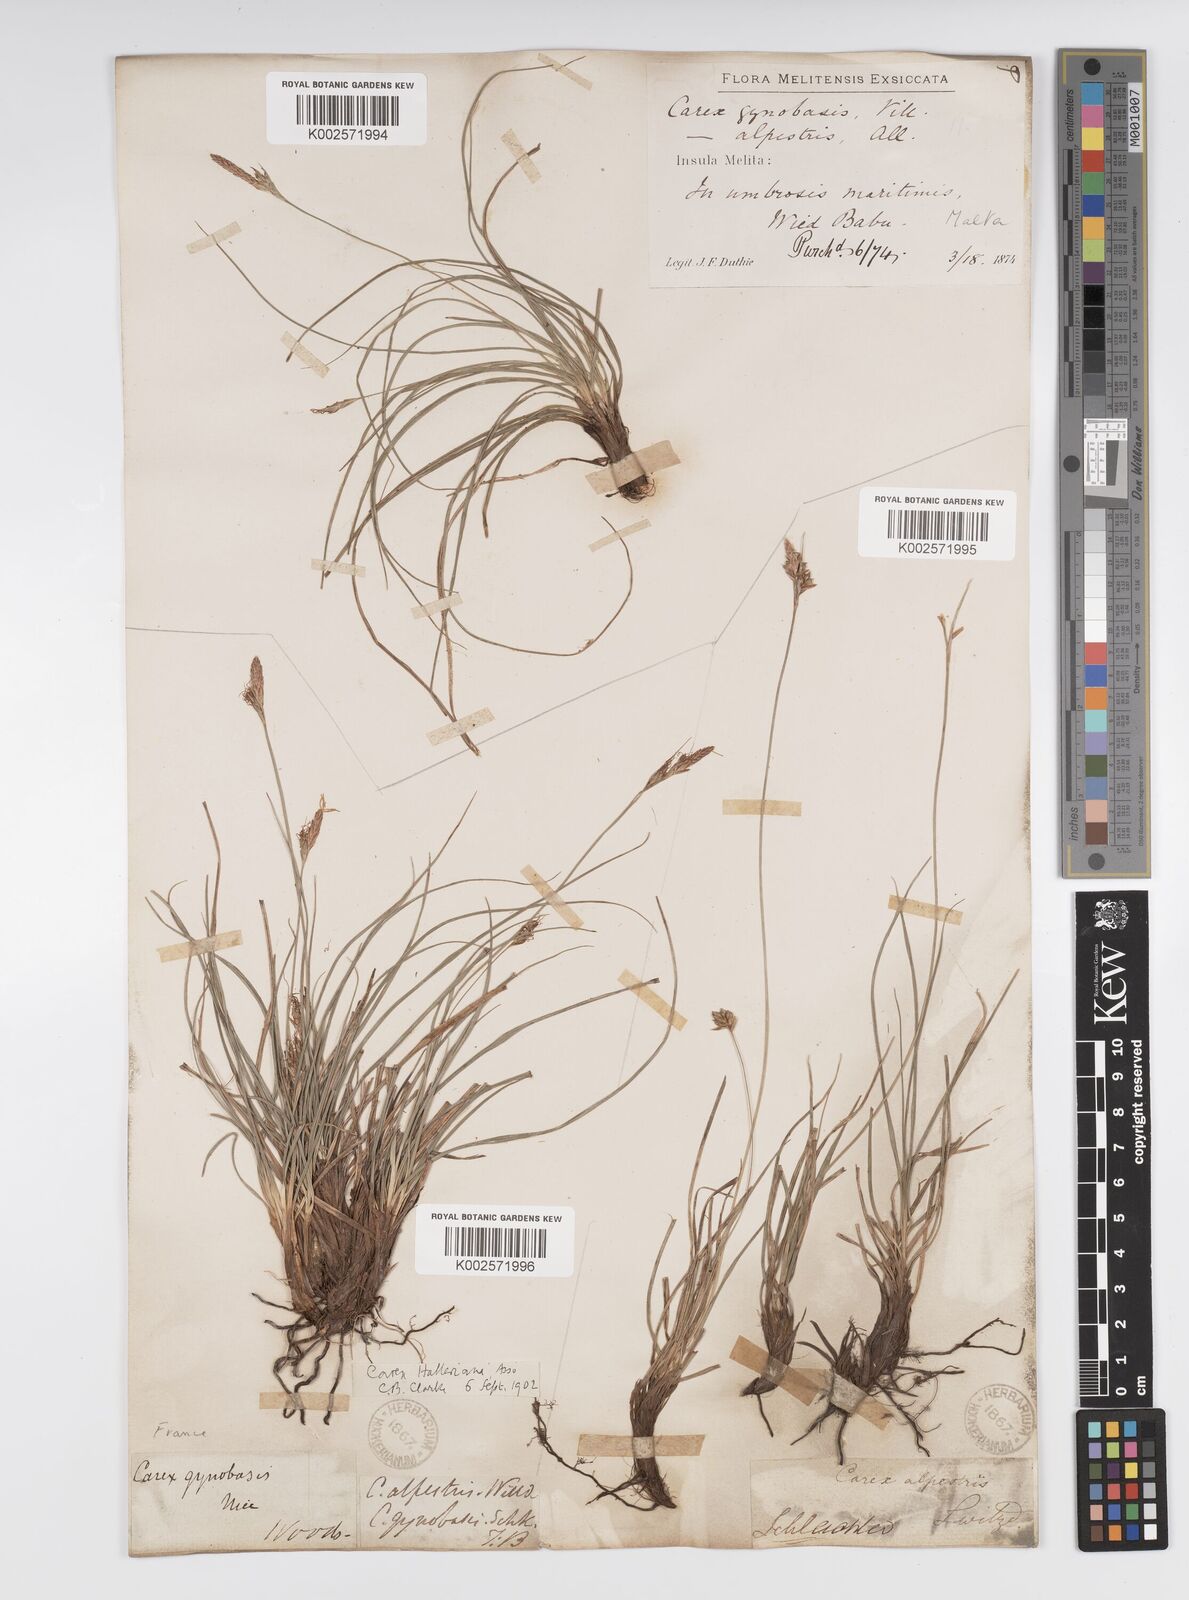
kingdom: Plantae
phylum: Tracheophyta
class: Liliopsida
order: Poales
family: Cyperaceae
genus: Carex
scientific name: Carex halleriana
